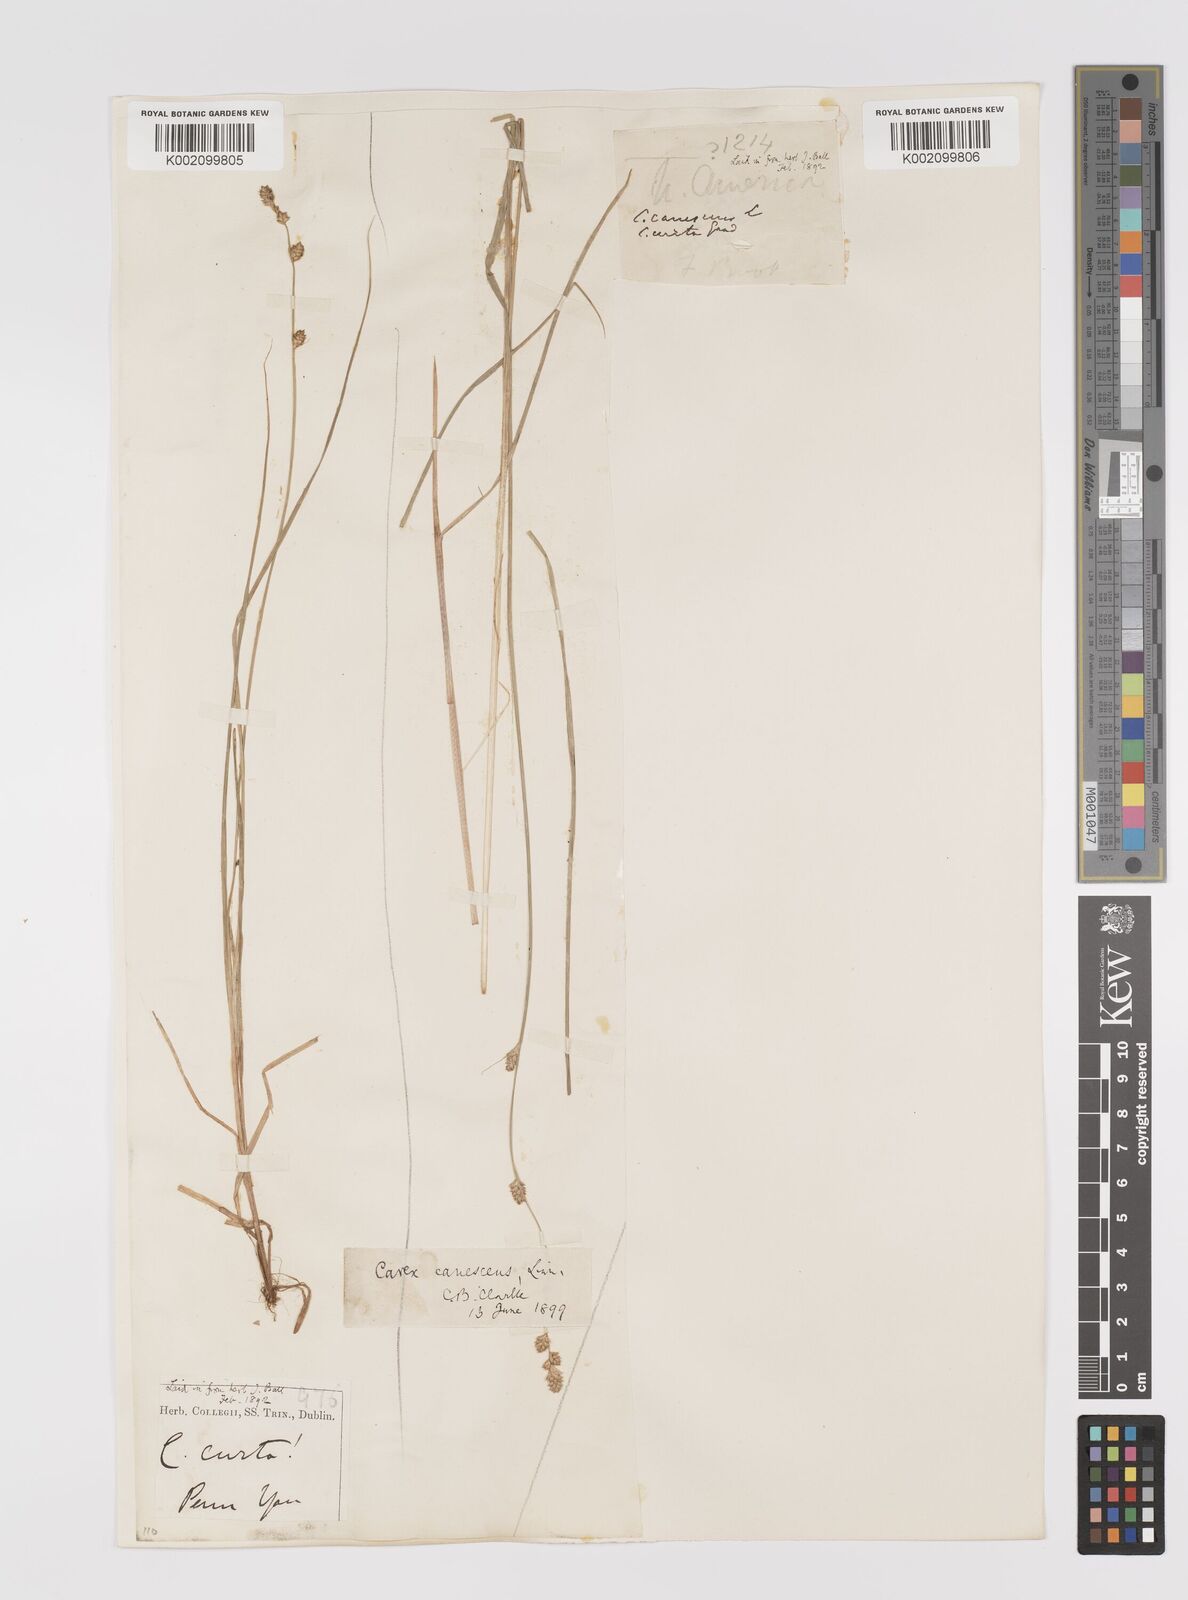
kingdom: Plantae
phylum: Tracheophyta
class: Liliopsida
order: Poales
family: Cyperaceae
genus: Carex
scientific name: Carex curta
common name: White sedge
